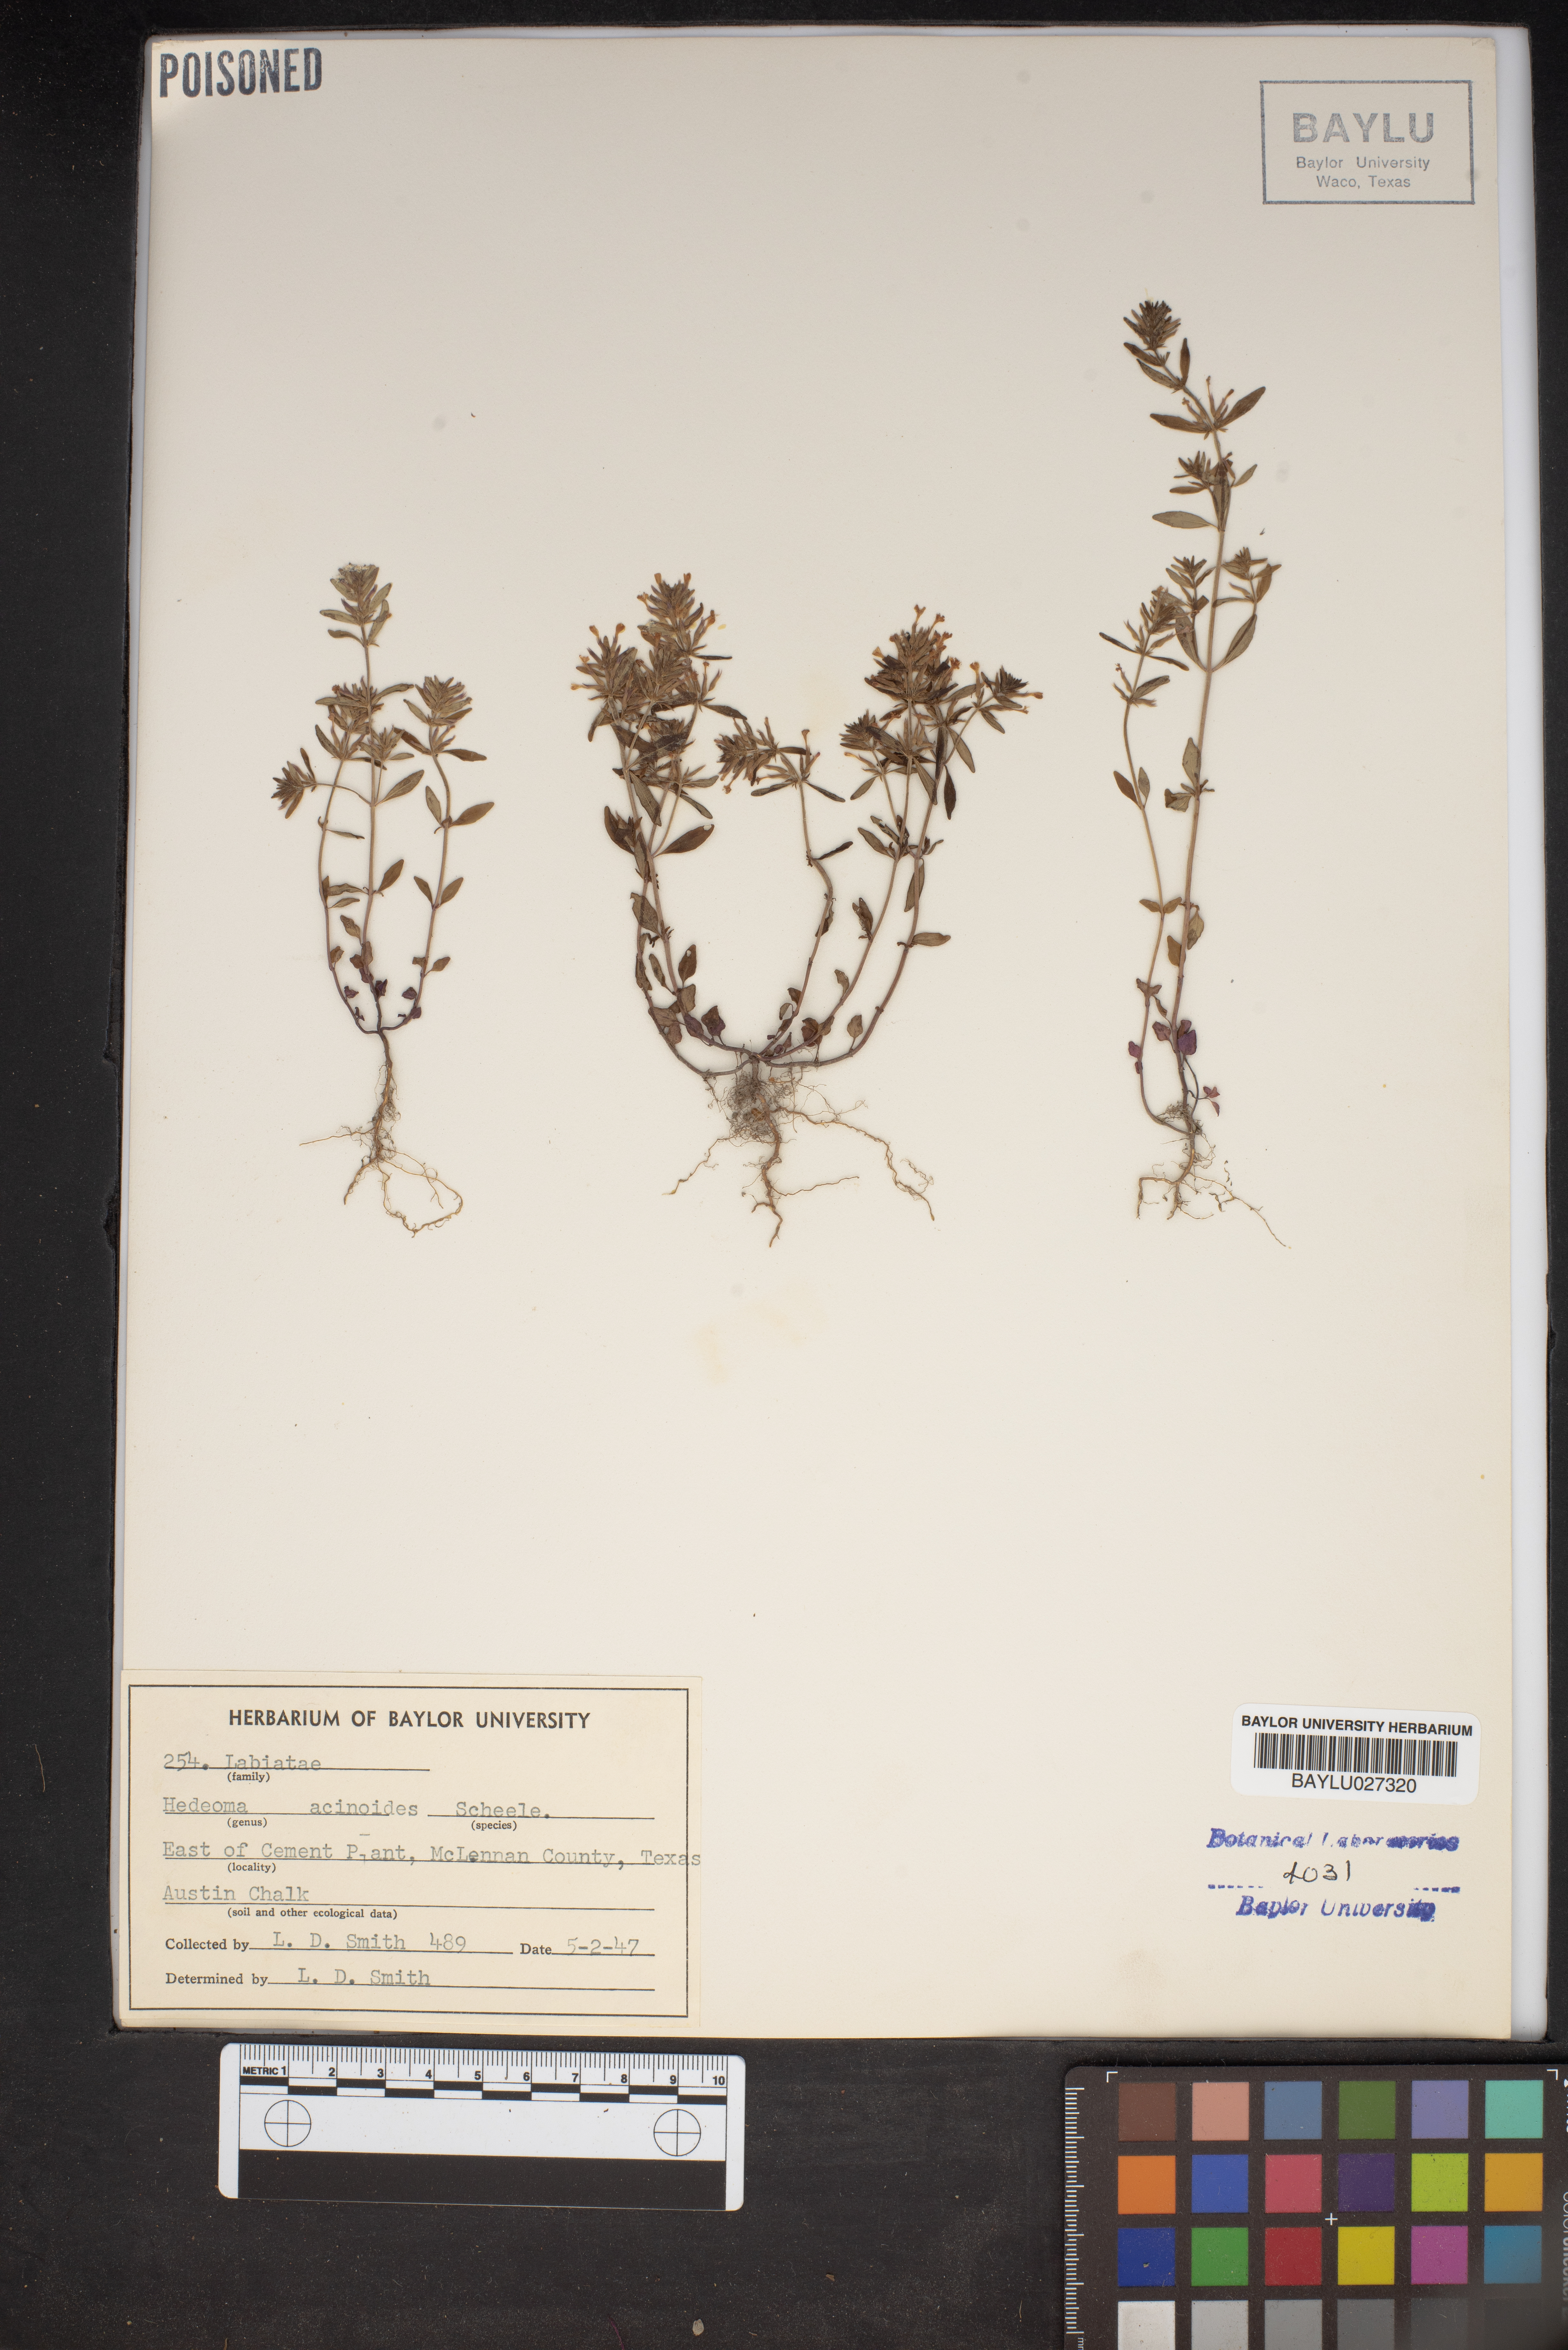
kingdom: Plantae
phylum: Tracheophyta
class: Magnoliopsida
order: Lamiales
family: Lamiaceae
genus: Hedeoma
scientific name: Hedeoma acinoides
